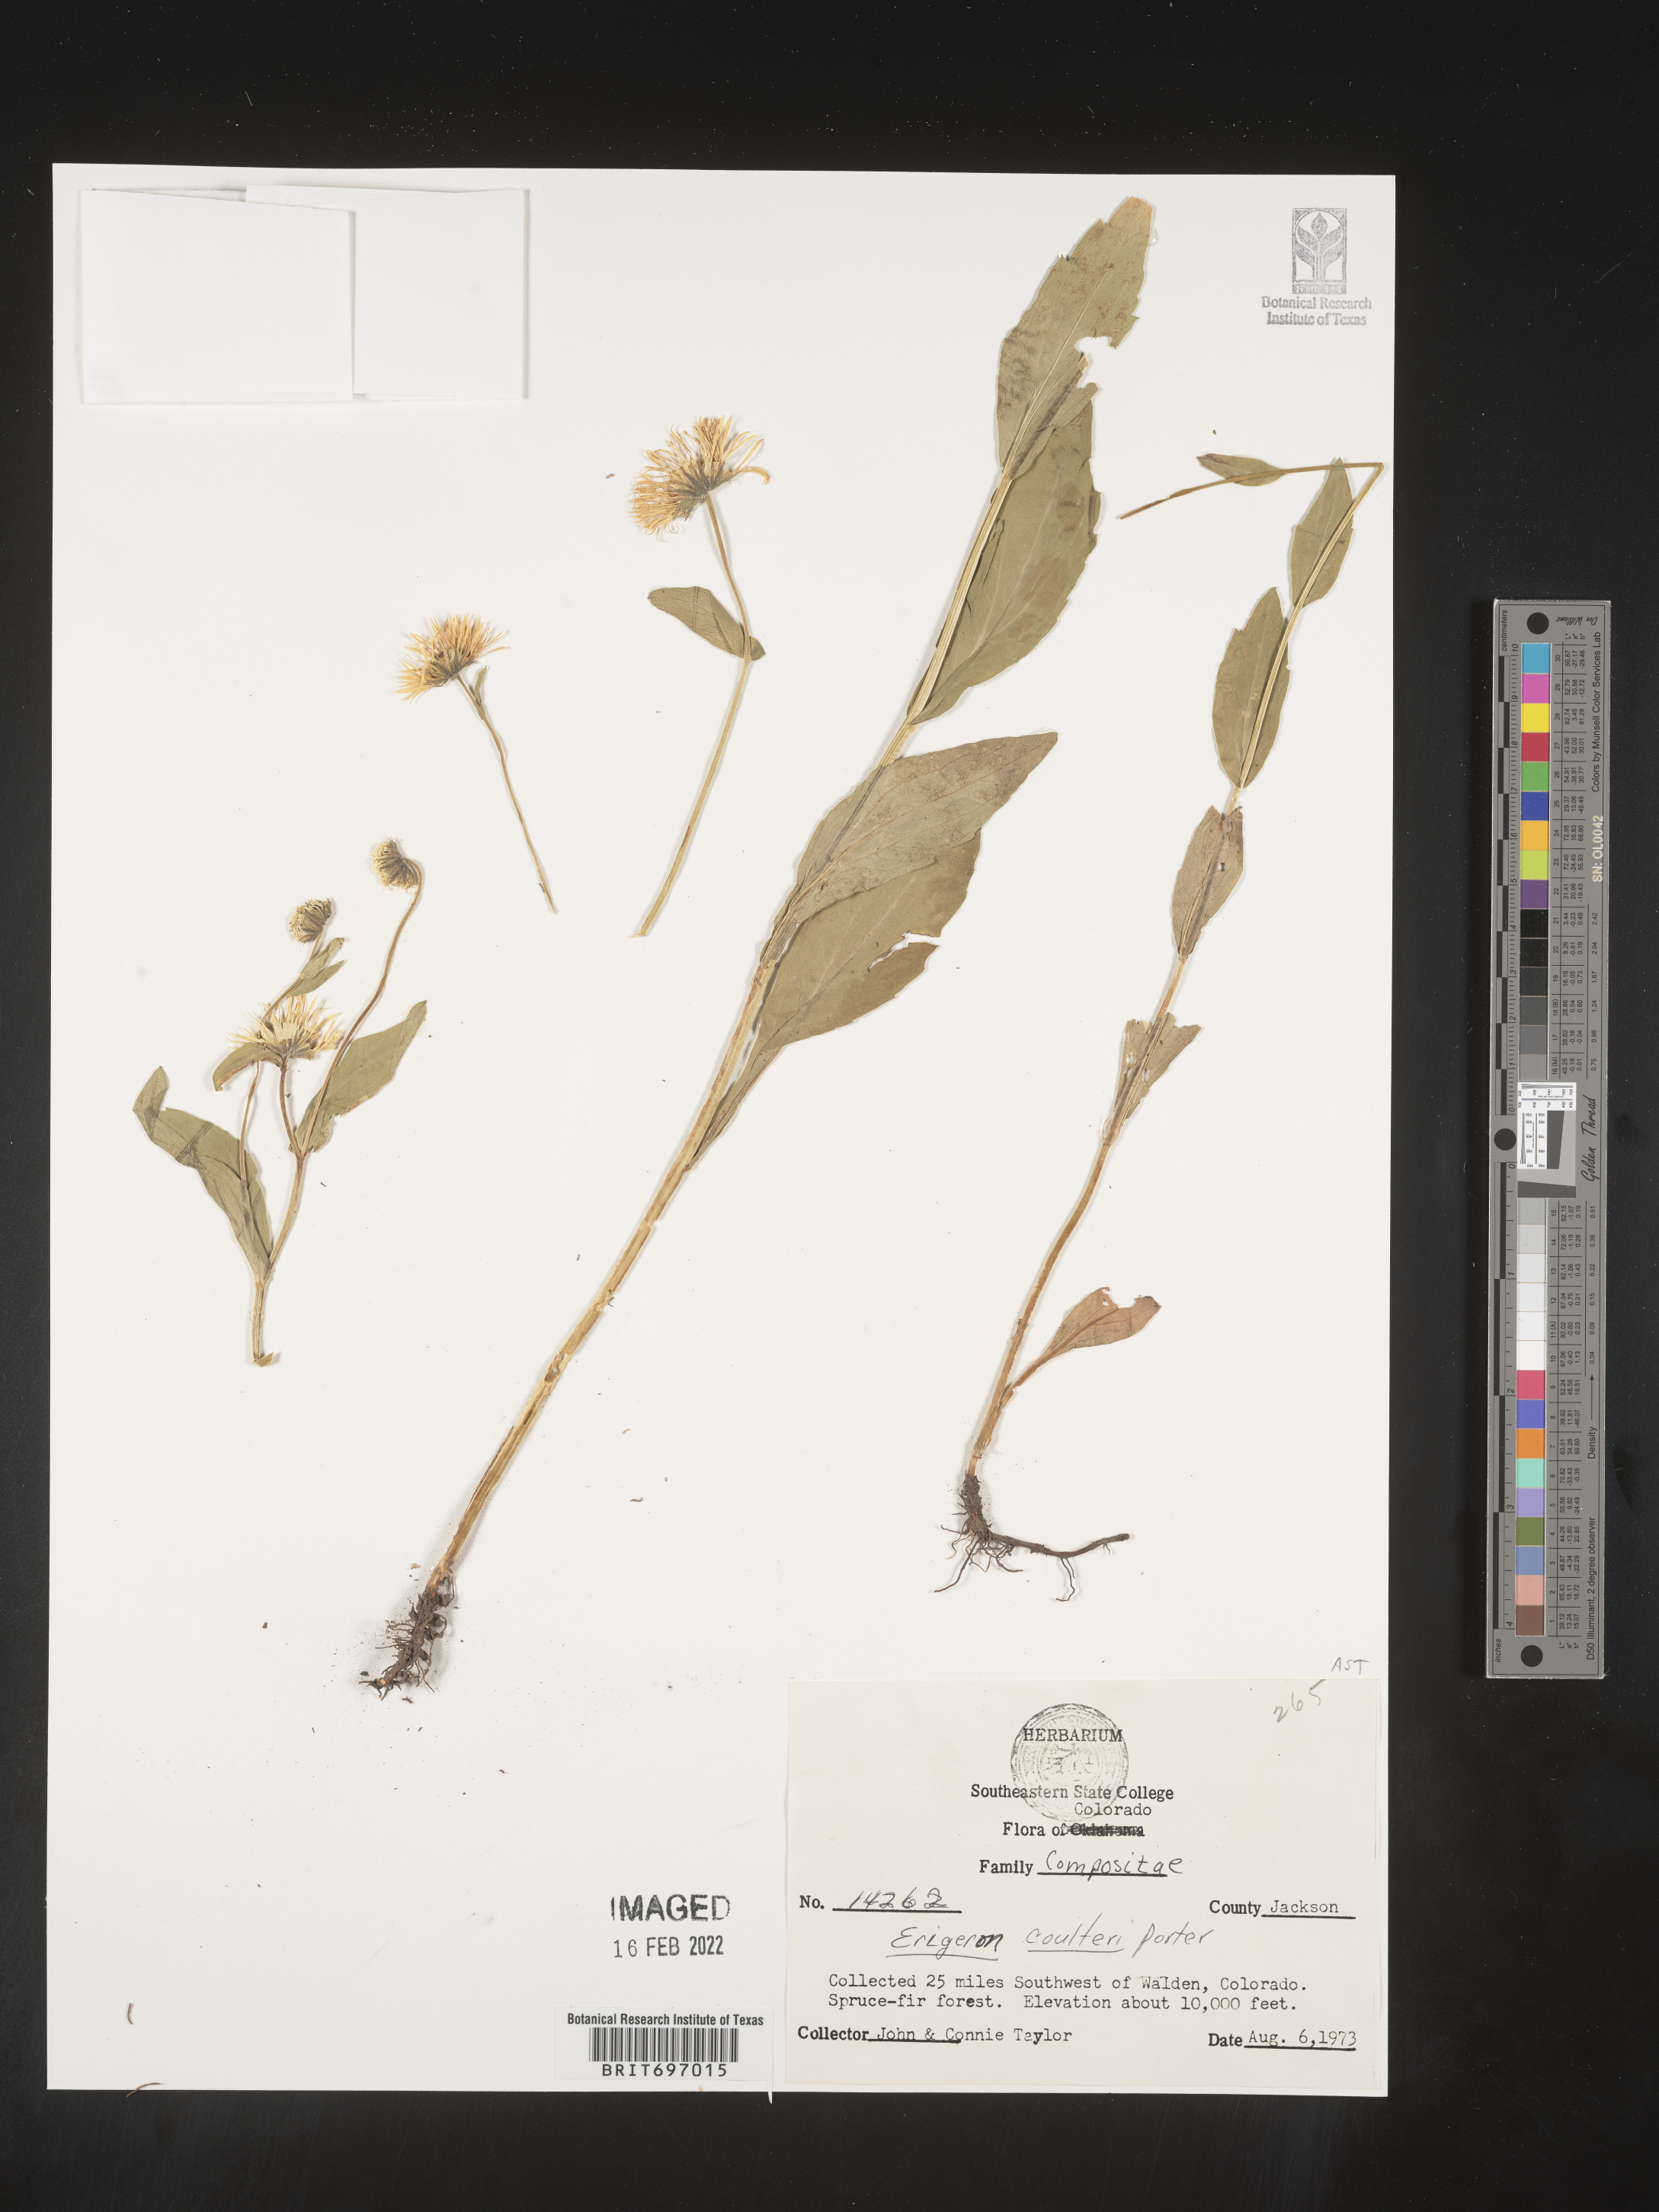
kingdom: Plantae
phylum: Tracheophyta
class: Magnoliopsida
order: Asterales
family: Asteraceae
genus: Erigeron
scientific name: Erigeron coulteri
